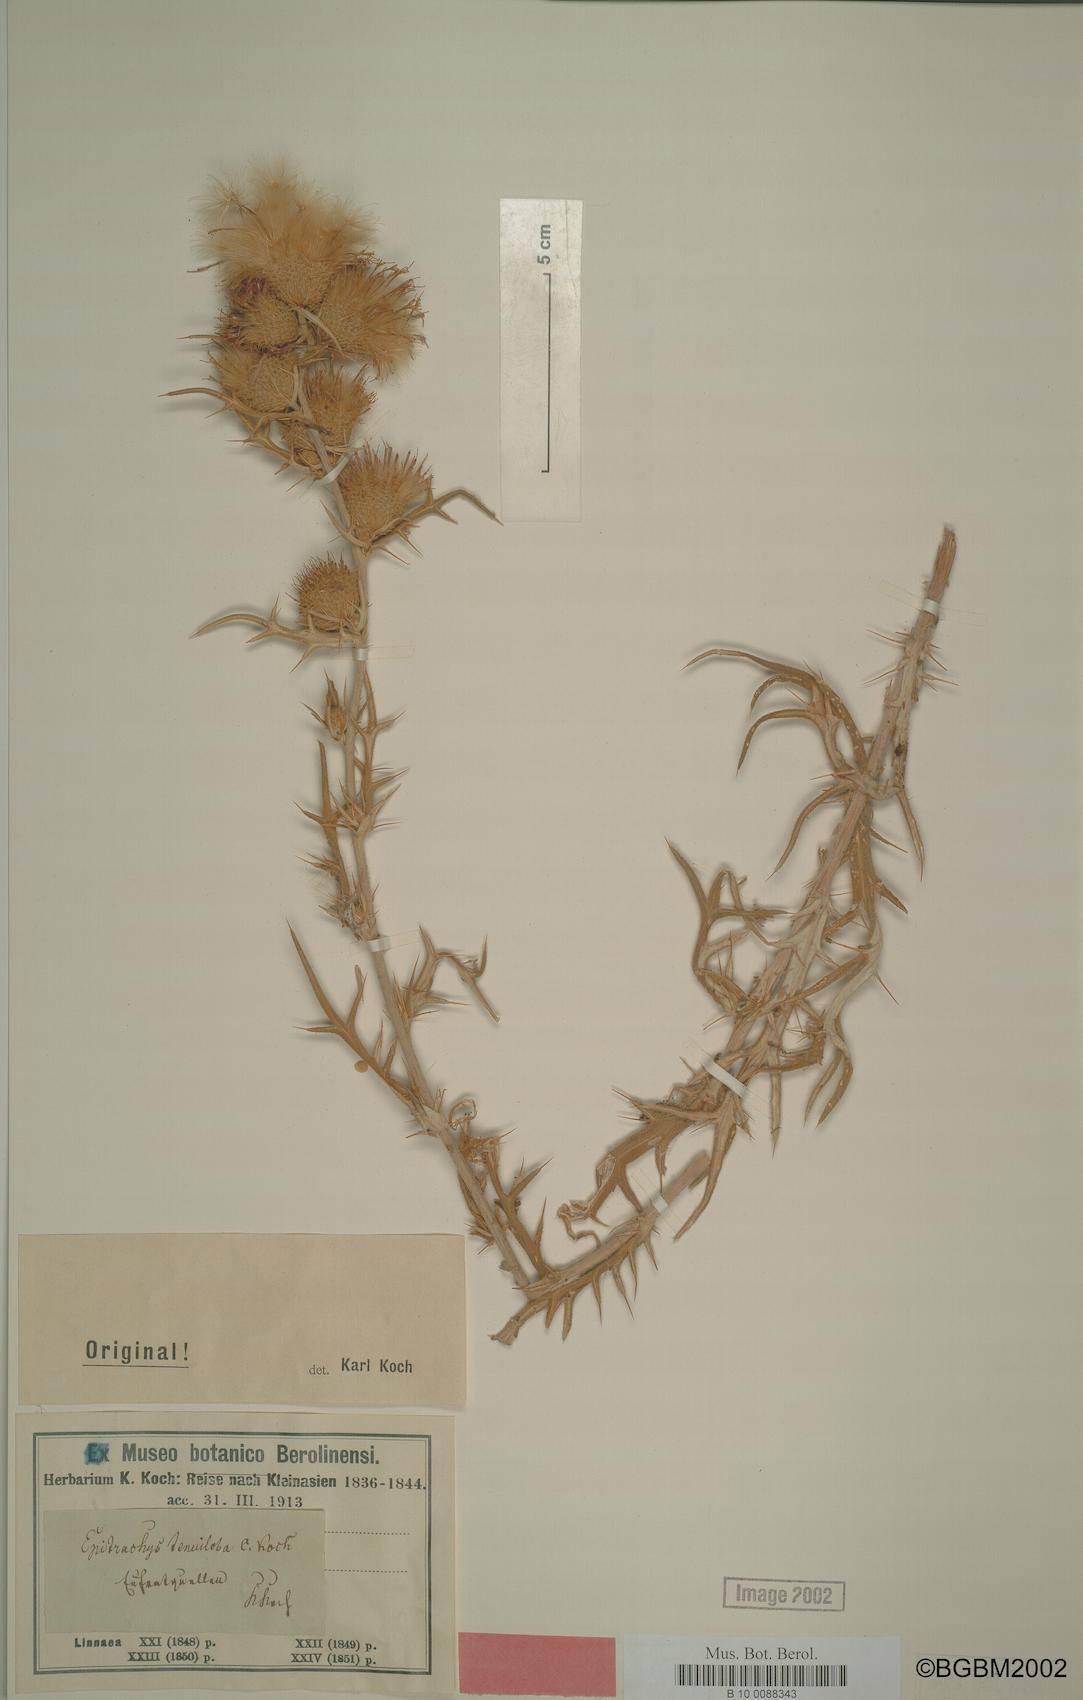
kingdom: Plantae
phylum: Tracheophyta
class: Magnoliopsida
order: Asterales
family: Asteraceae
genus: Lophiolepis
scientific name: Lophiolepis lappacea
